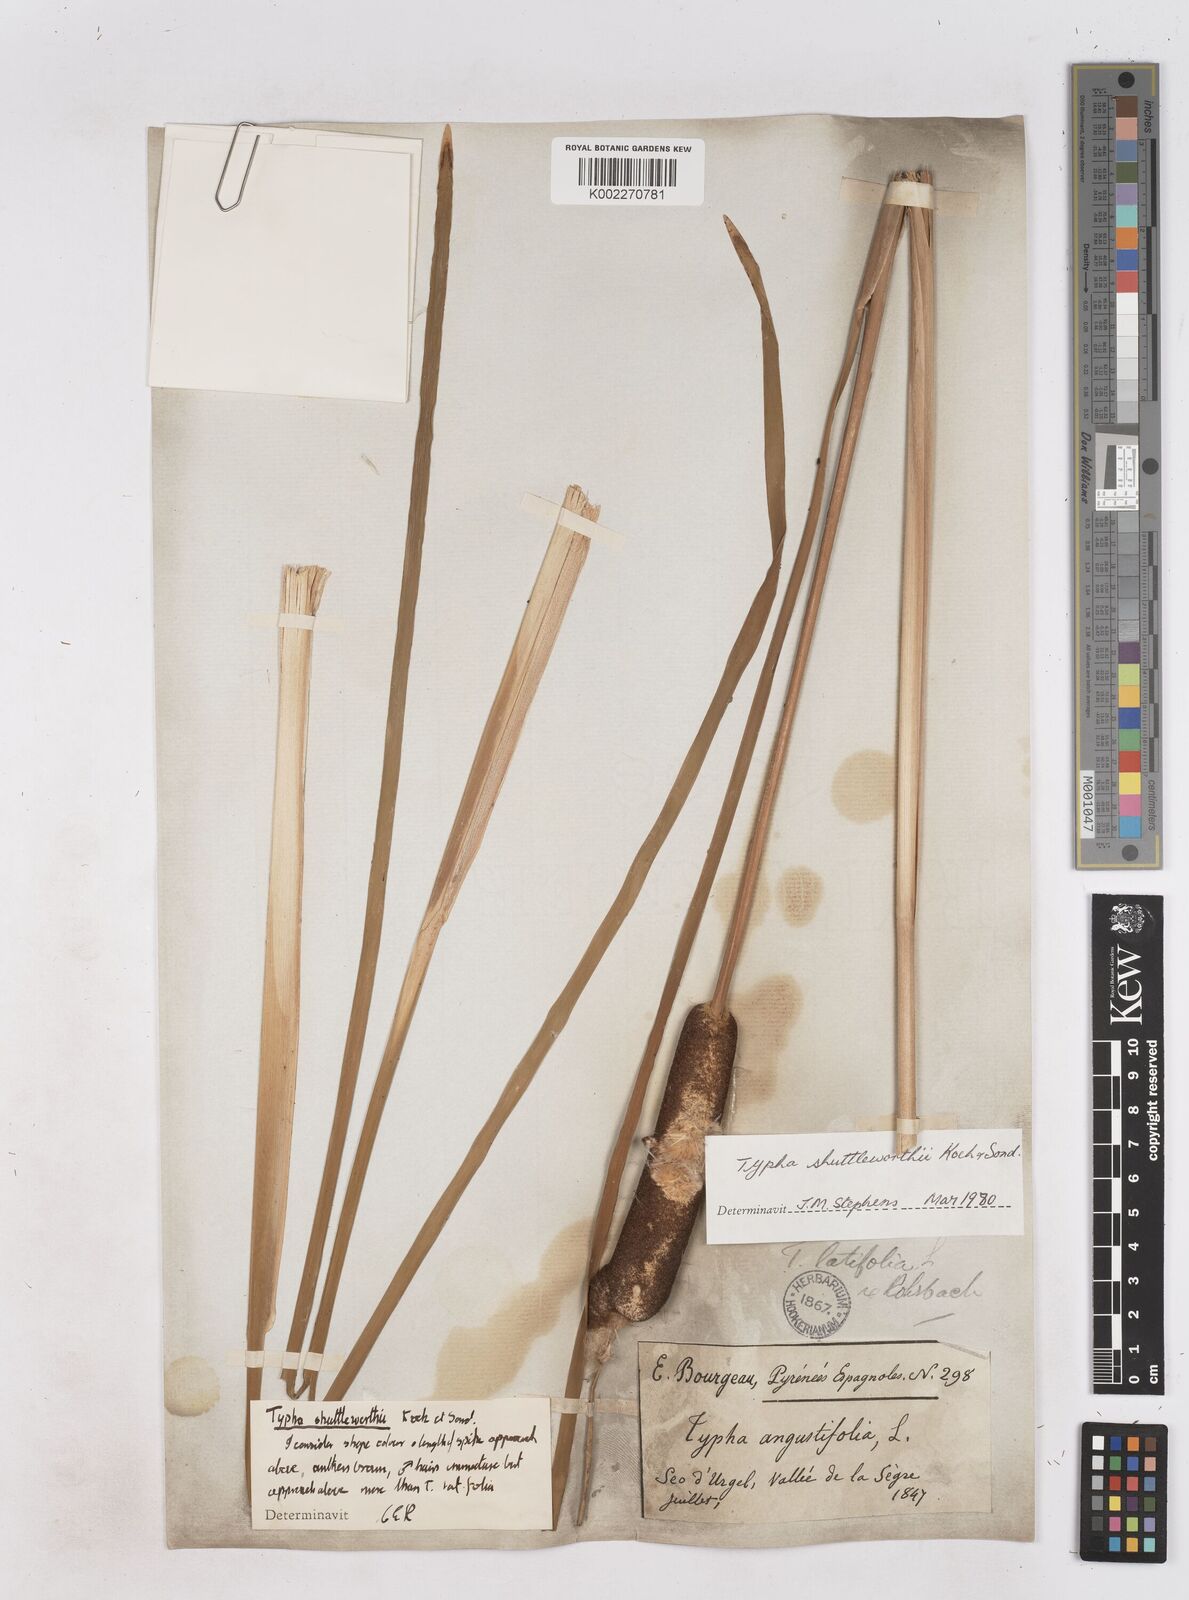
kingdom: Plantae
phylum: Tracheophyta
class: Liliopsida
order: Poales
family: Typhaceae
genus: Typha
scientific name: Typha shuttleworthii
